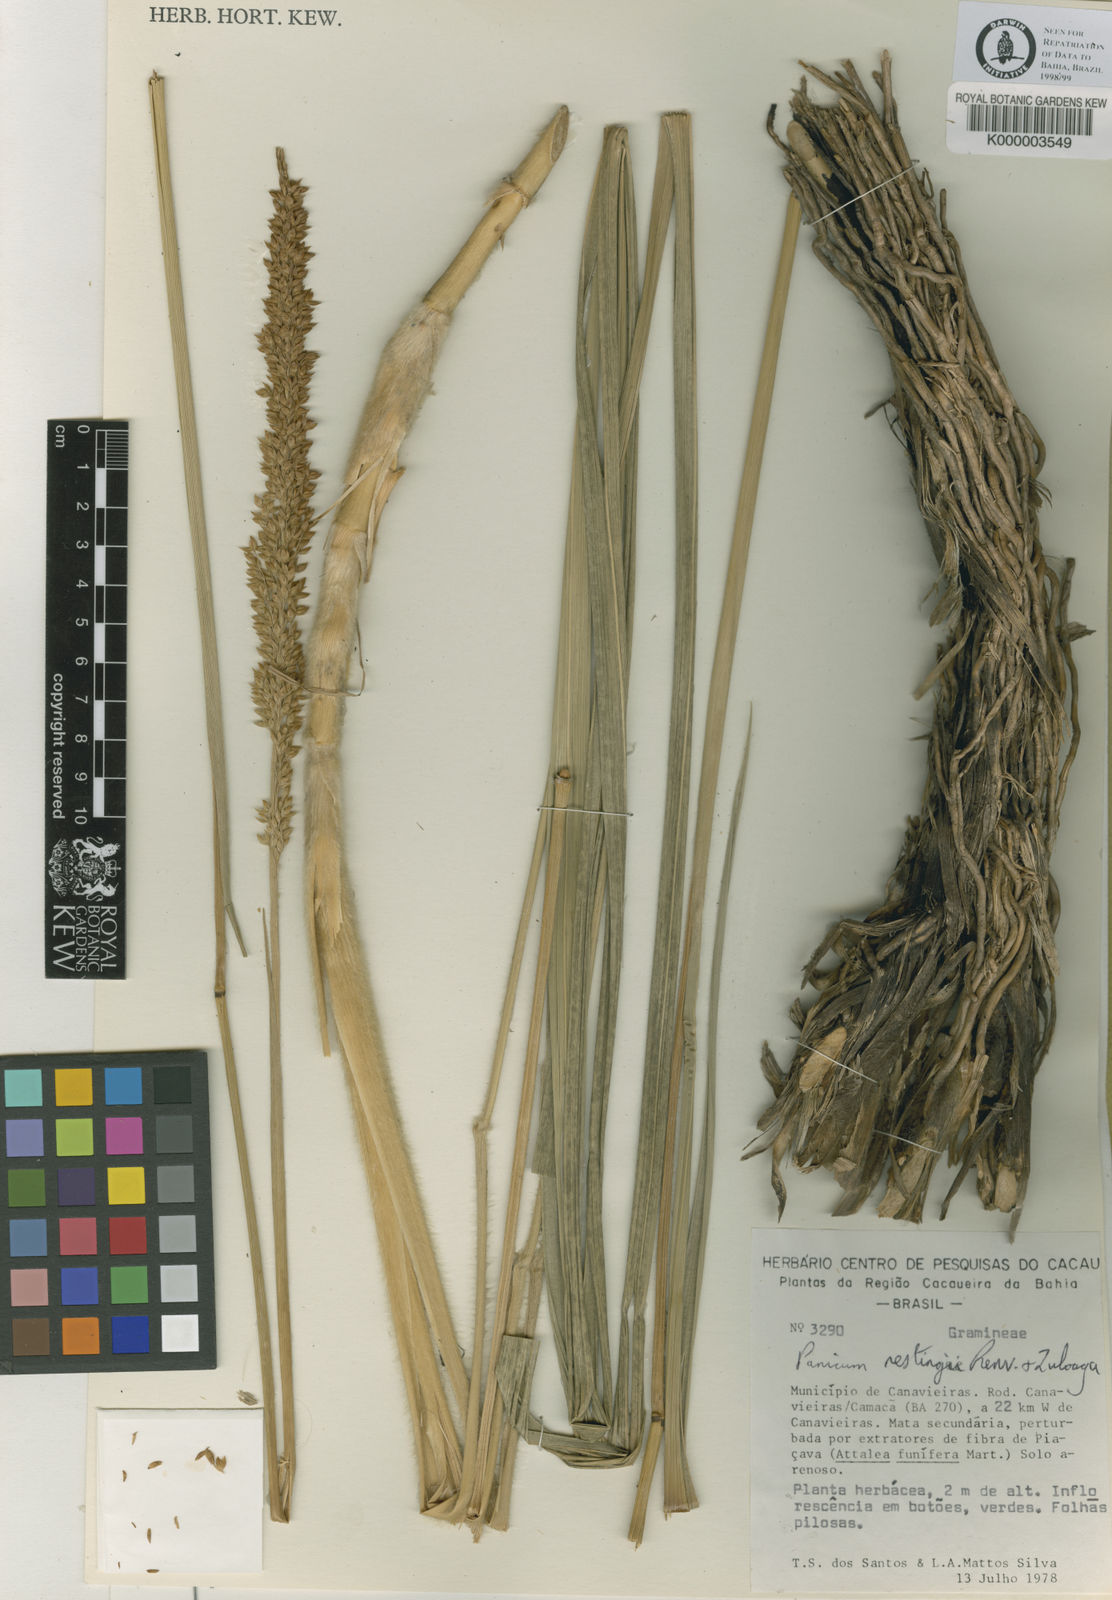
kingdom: Plantae
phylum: Tracheophyta
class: Liliopsida
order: Poales
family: Poaceae
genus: Renvoizea
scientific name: Renvoizea restingae
